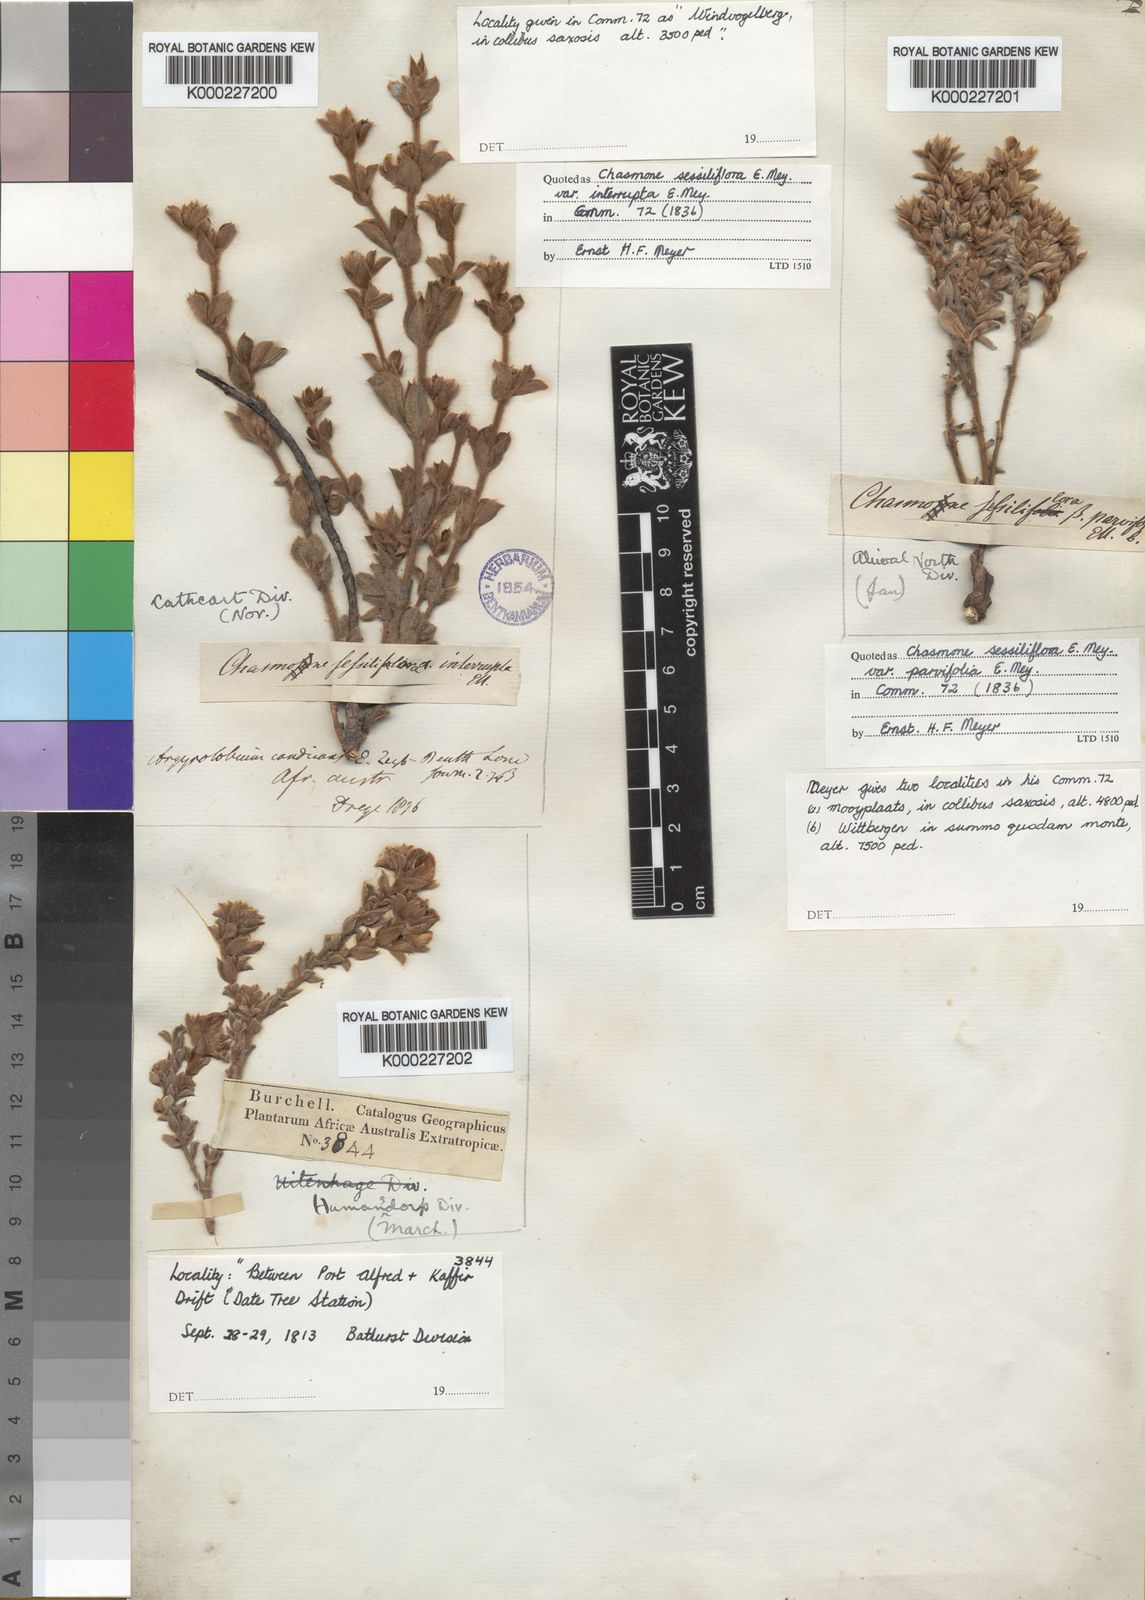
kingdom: Plantae
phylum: Tracheophyta
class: Magnoliopsida
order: Fabales
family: Fabaceae
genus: Argyrolobium
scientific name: Argyrolobium stipulaceum
